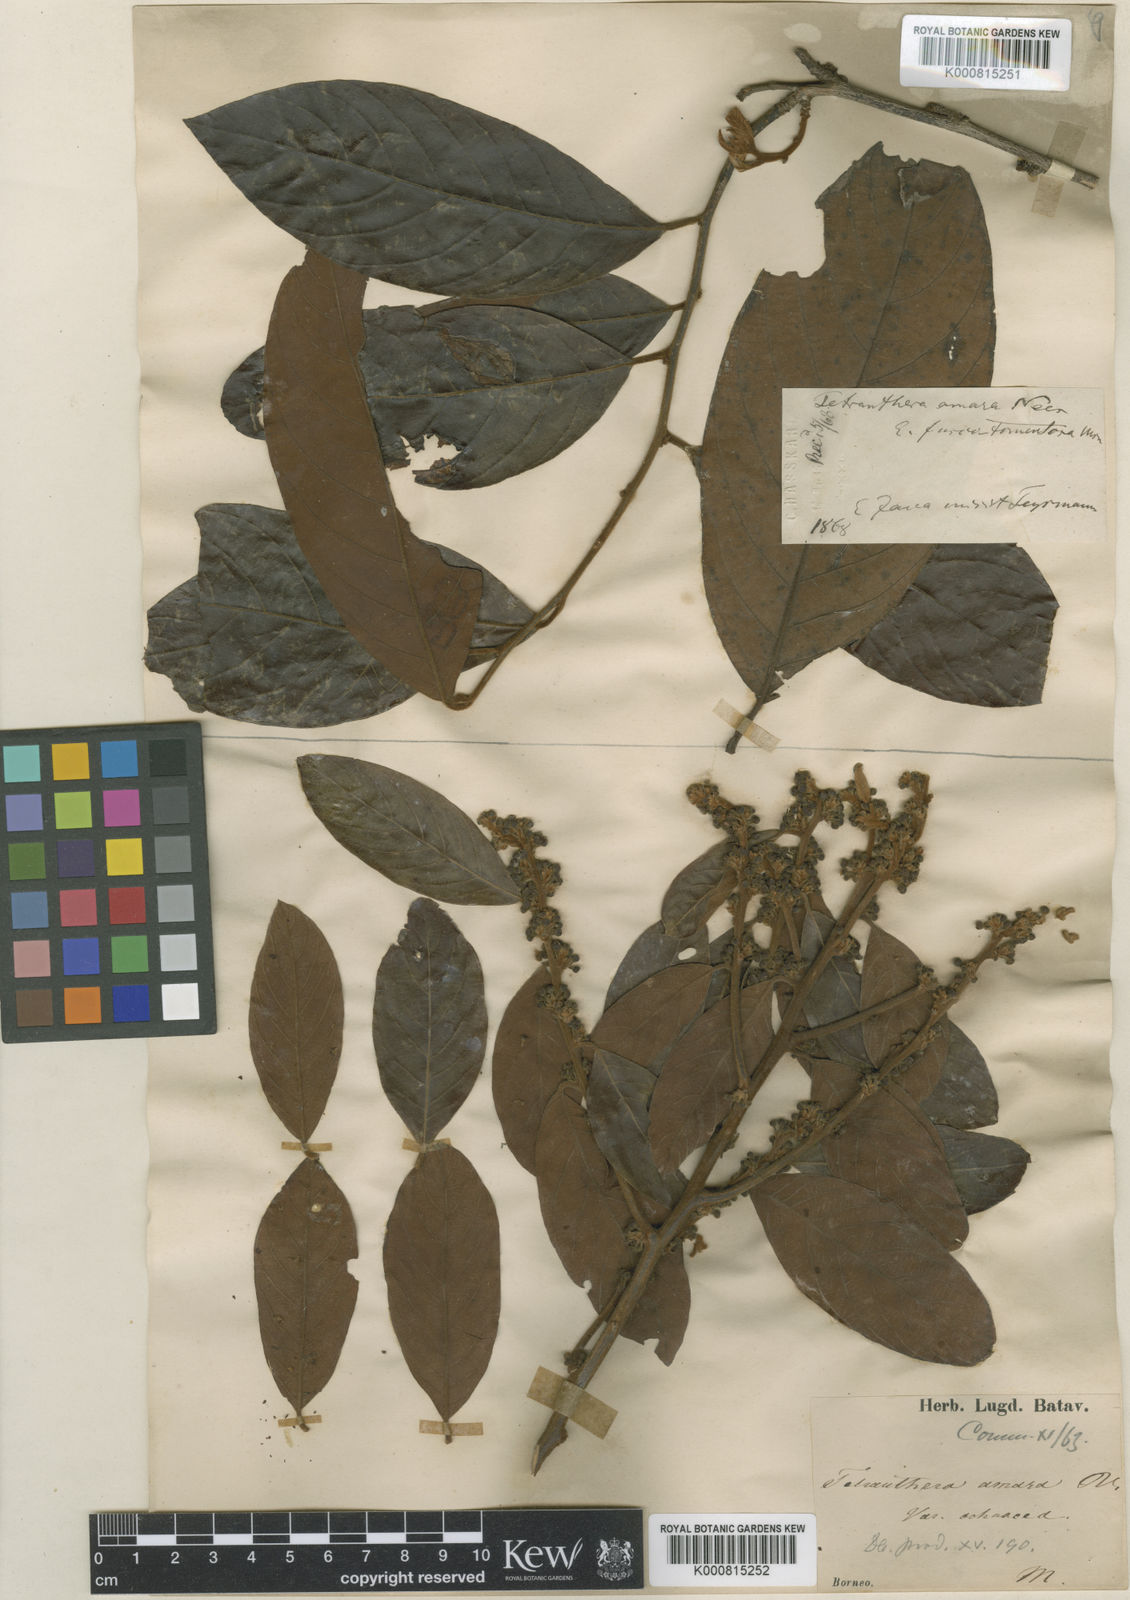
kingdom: Plantae
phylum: Tracheophyta
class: Magnoliopsida
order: Laurales
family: Lauraceae
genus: Litsea
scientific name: Litsea umbellata
